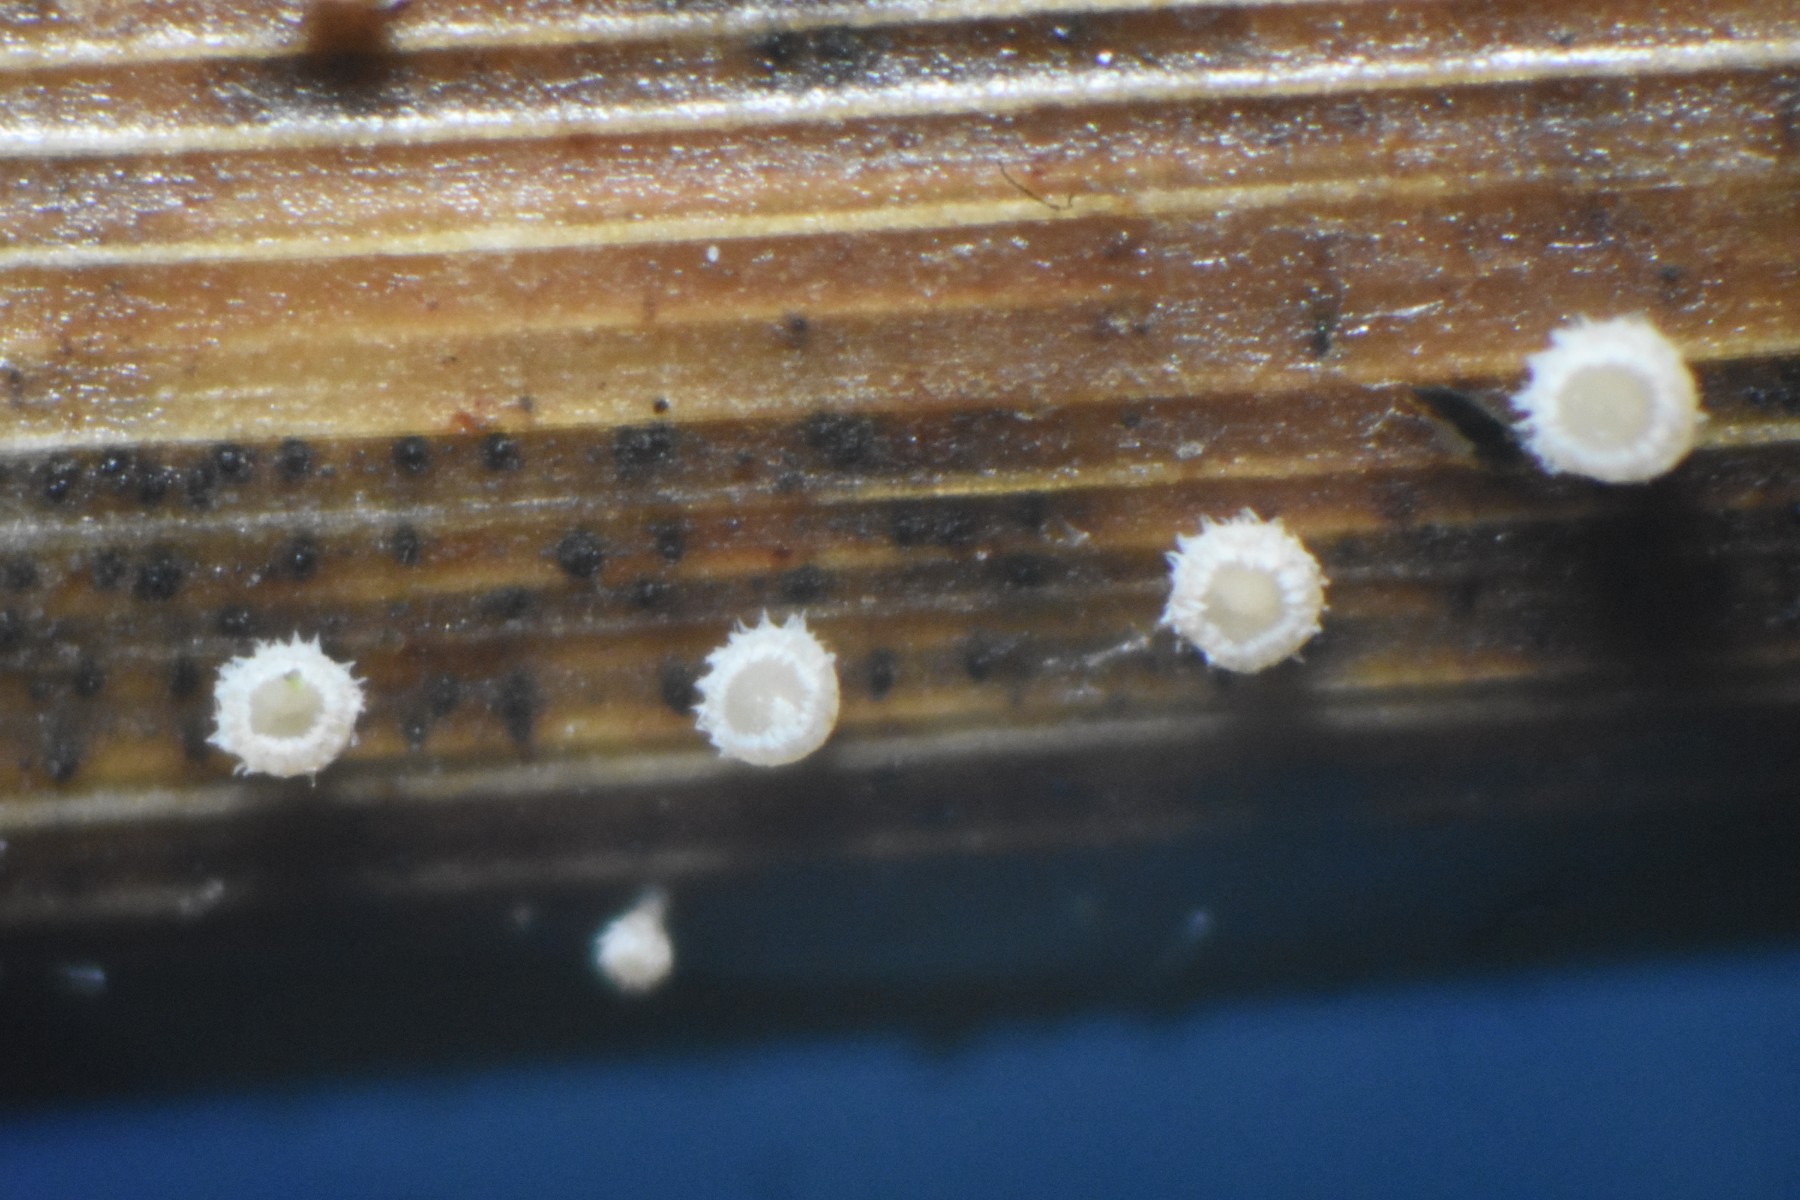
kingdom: Fungi
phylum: Ascomycota
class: Leotiomycetes
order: Helotiales
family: Lachnaceae
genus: Lachnum
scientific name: Lachnum apalum
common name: siv-frynseskive
